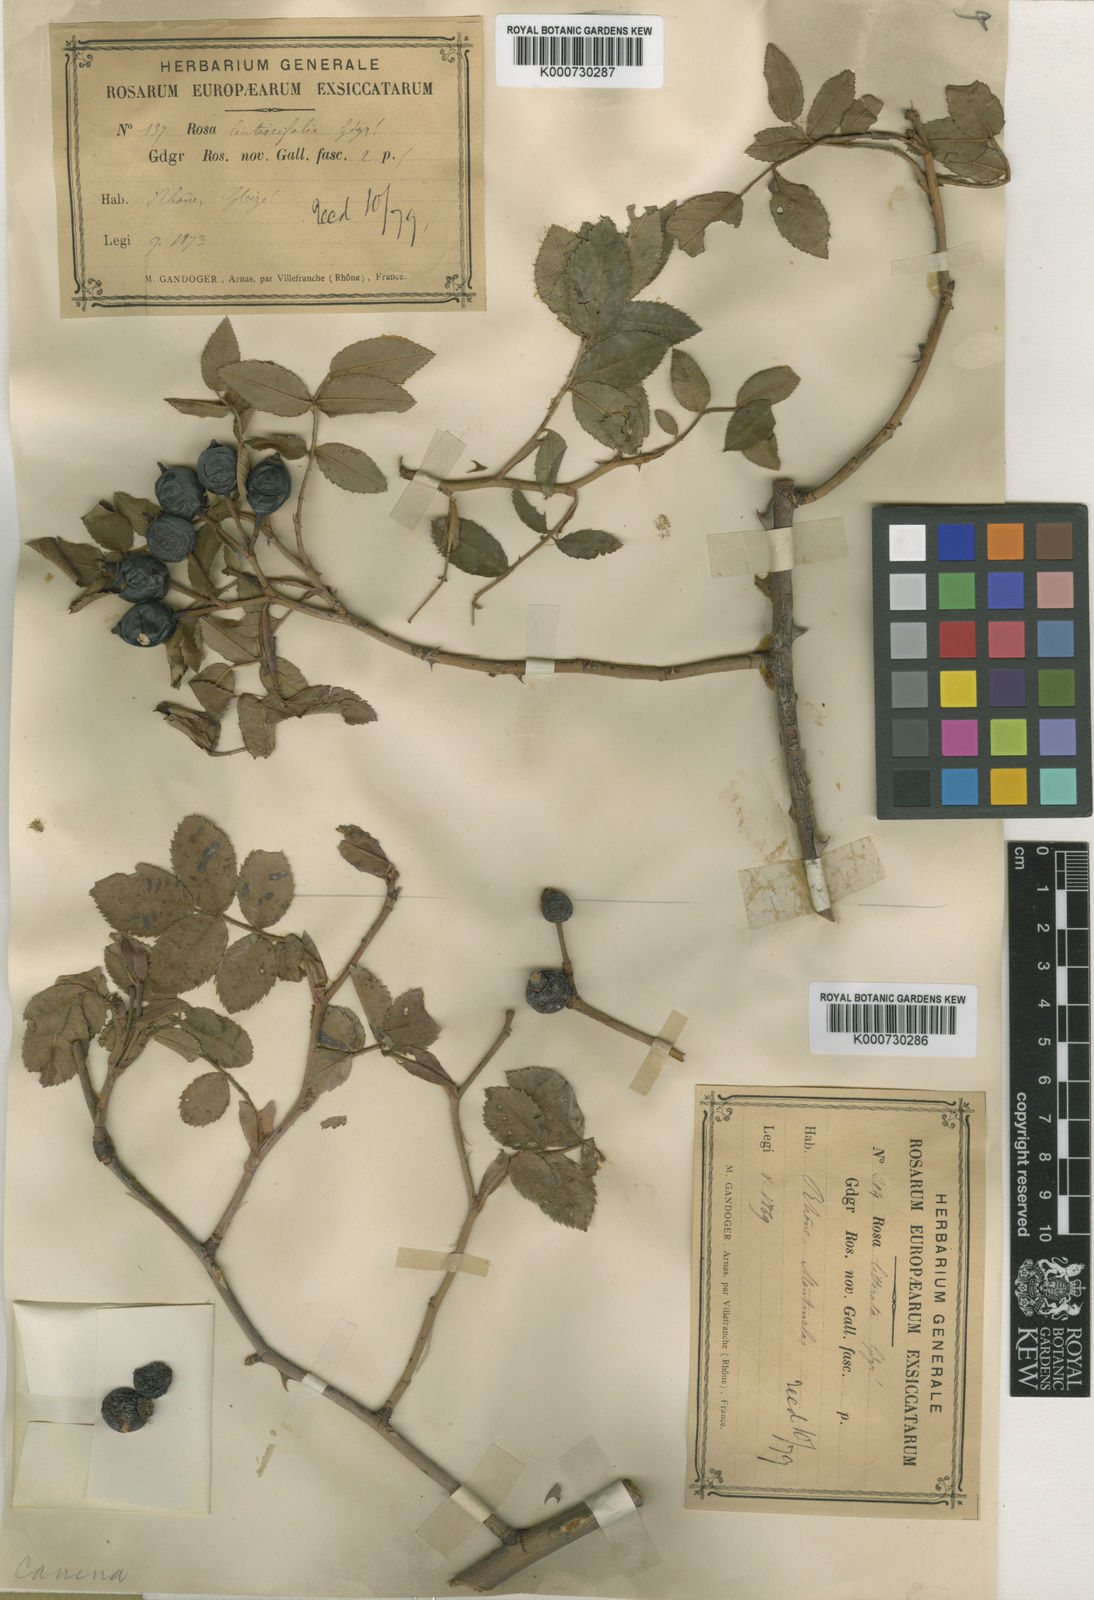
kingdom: Plantae
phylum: Tracheophyta
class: Magnoliopsida
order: Rosales
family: Rosaceae
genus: Rosa
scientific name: Rosa canina
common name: Dog rose
